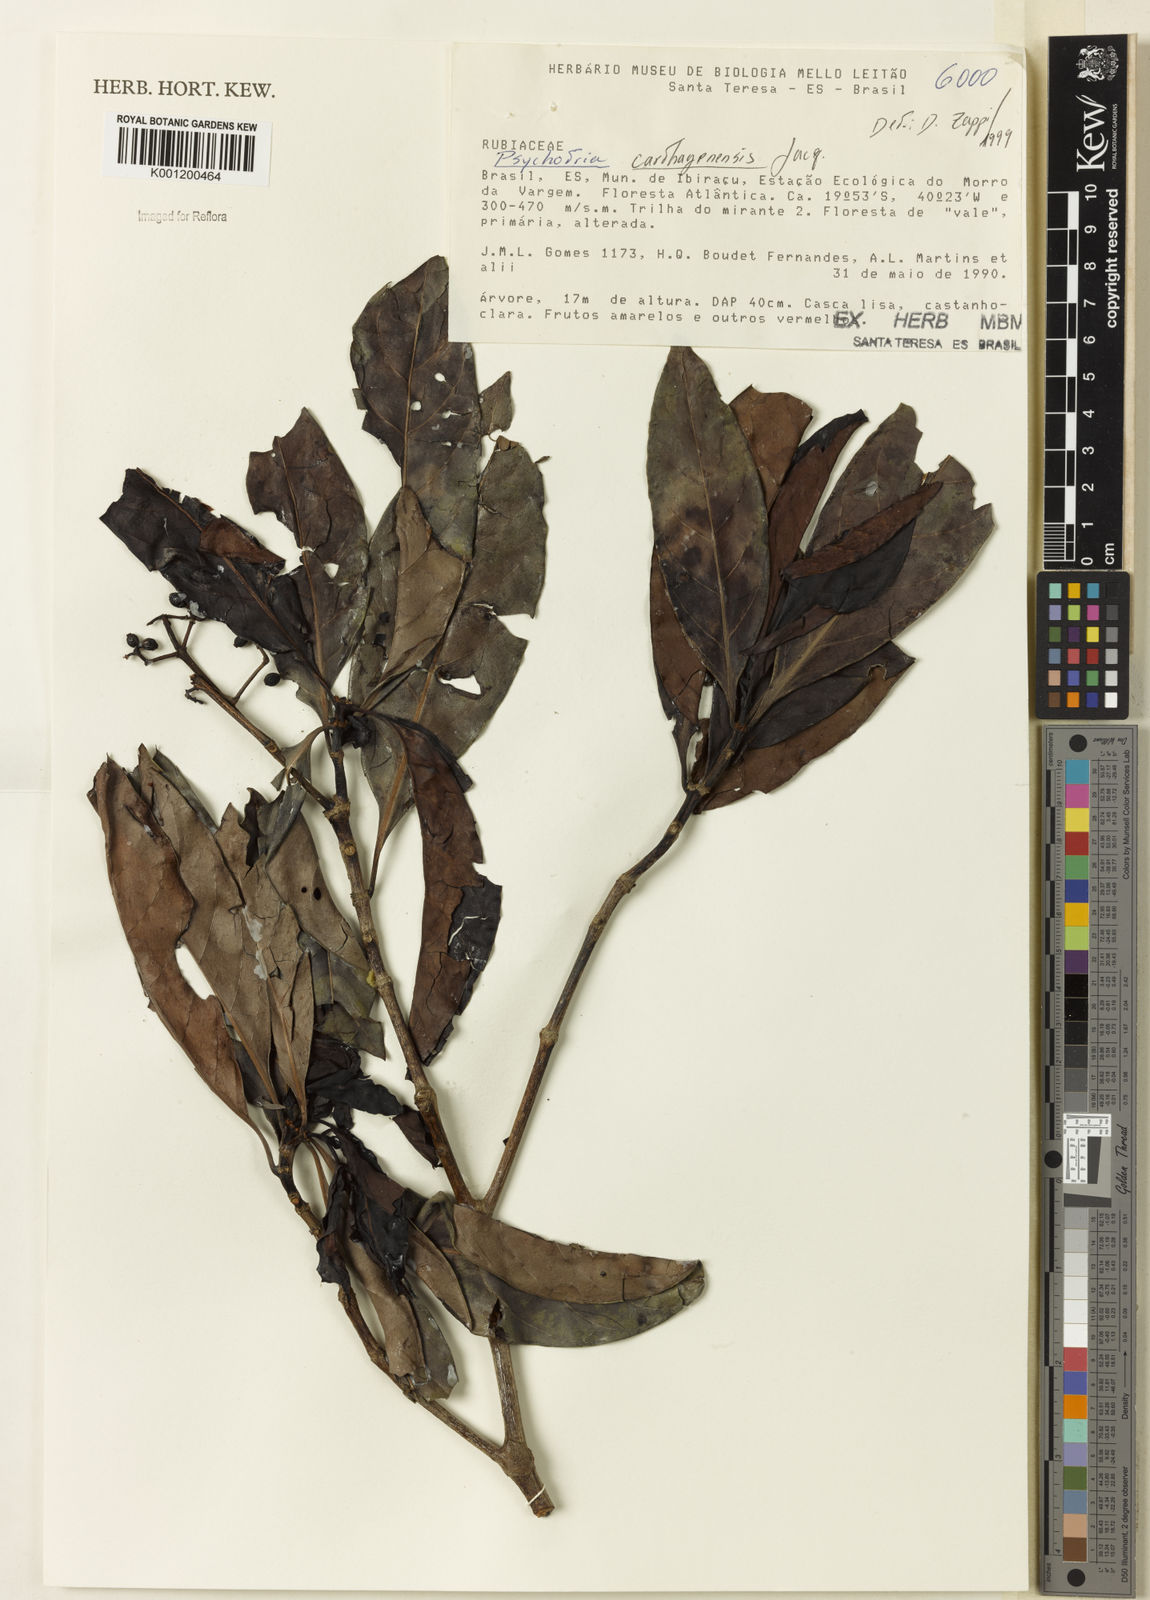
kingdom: Plantae
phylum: Tracheophyta
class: Magnoliopsida
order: Gentianales
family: Rubiaceae
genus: Psychotria
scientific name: Psychotria carthagenensis
